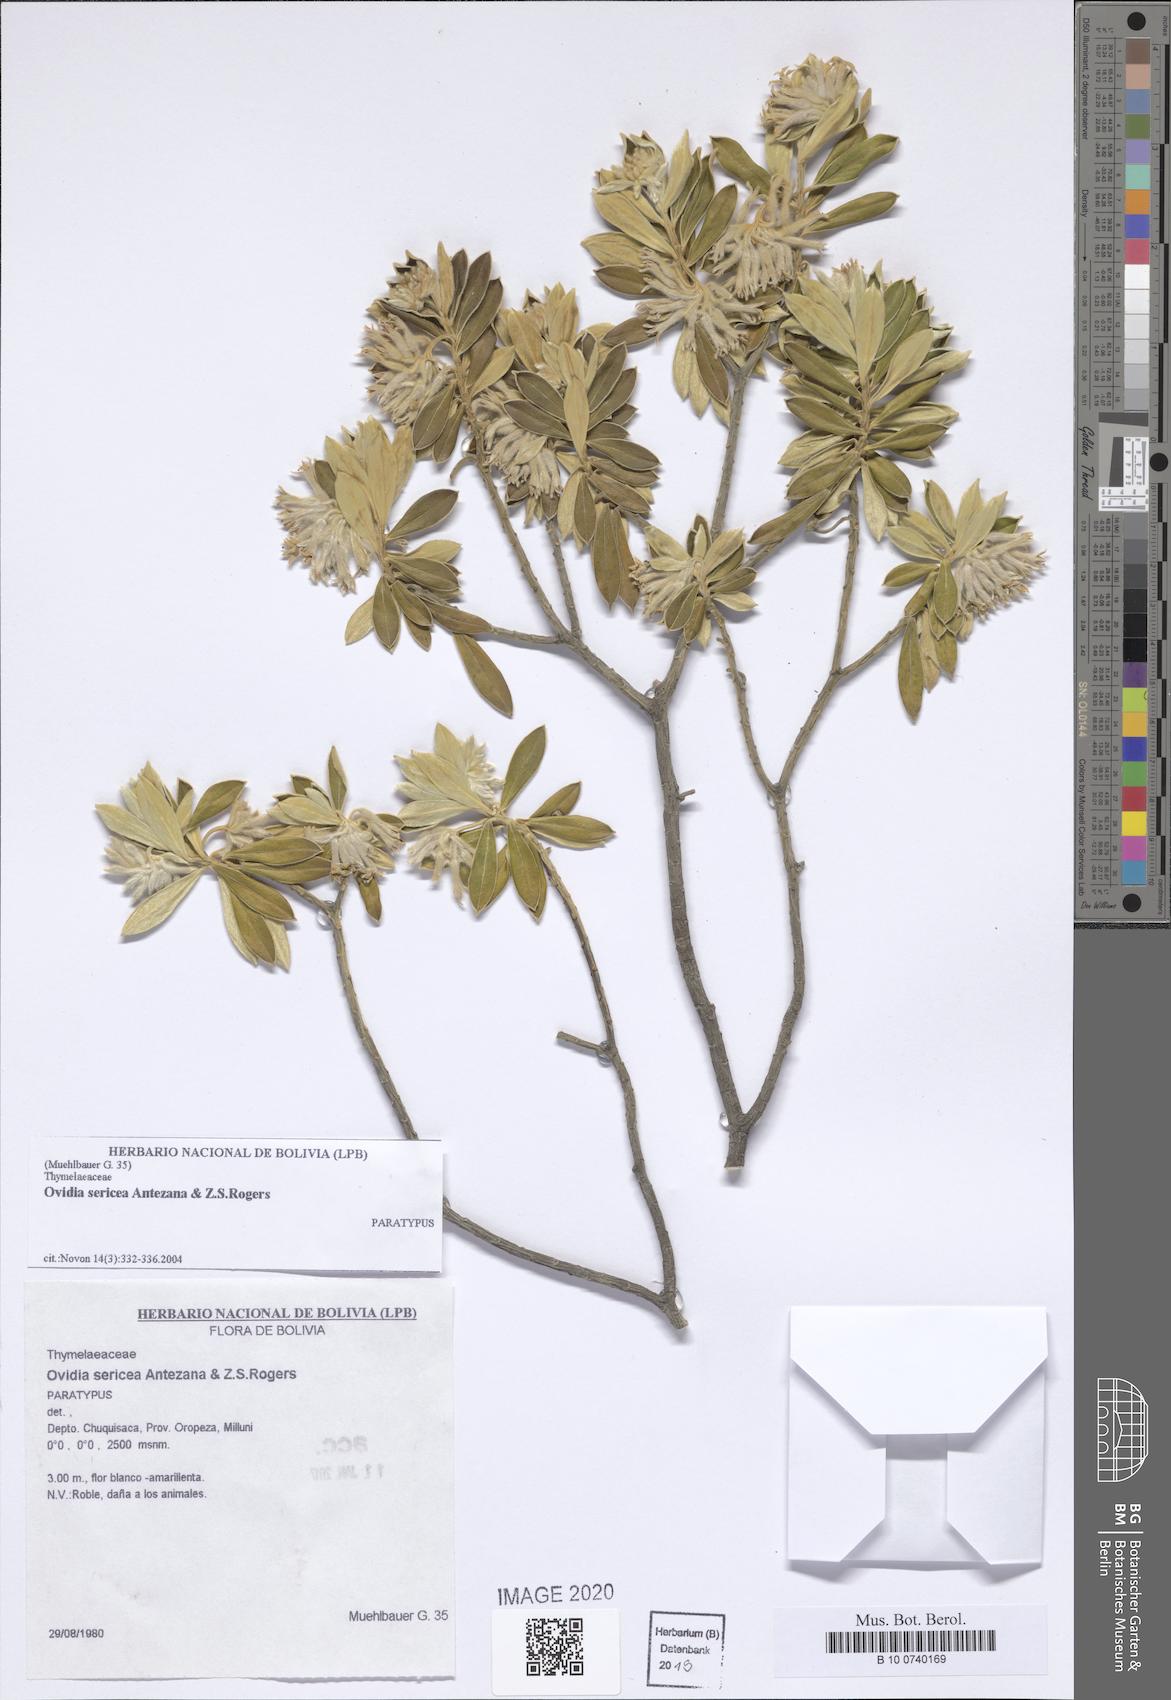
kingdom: Plantae
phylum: Tracheophyta
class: Magnoliopsida
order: Malvales
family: Thymelaeaceae
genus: Ovidia
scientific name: Ovidia sericea
